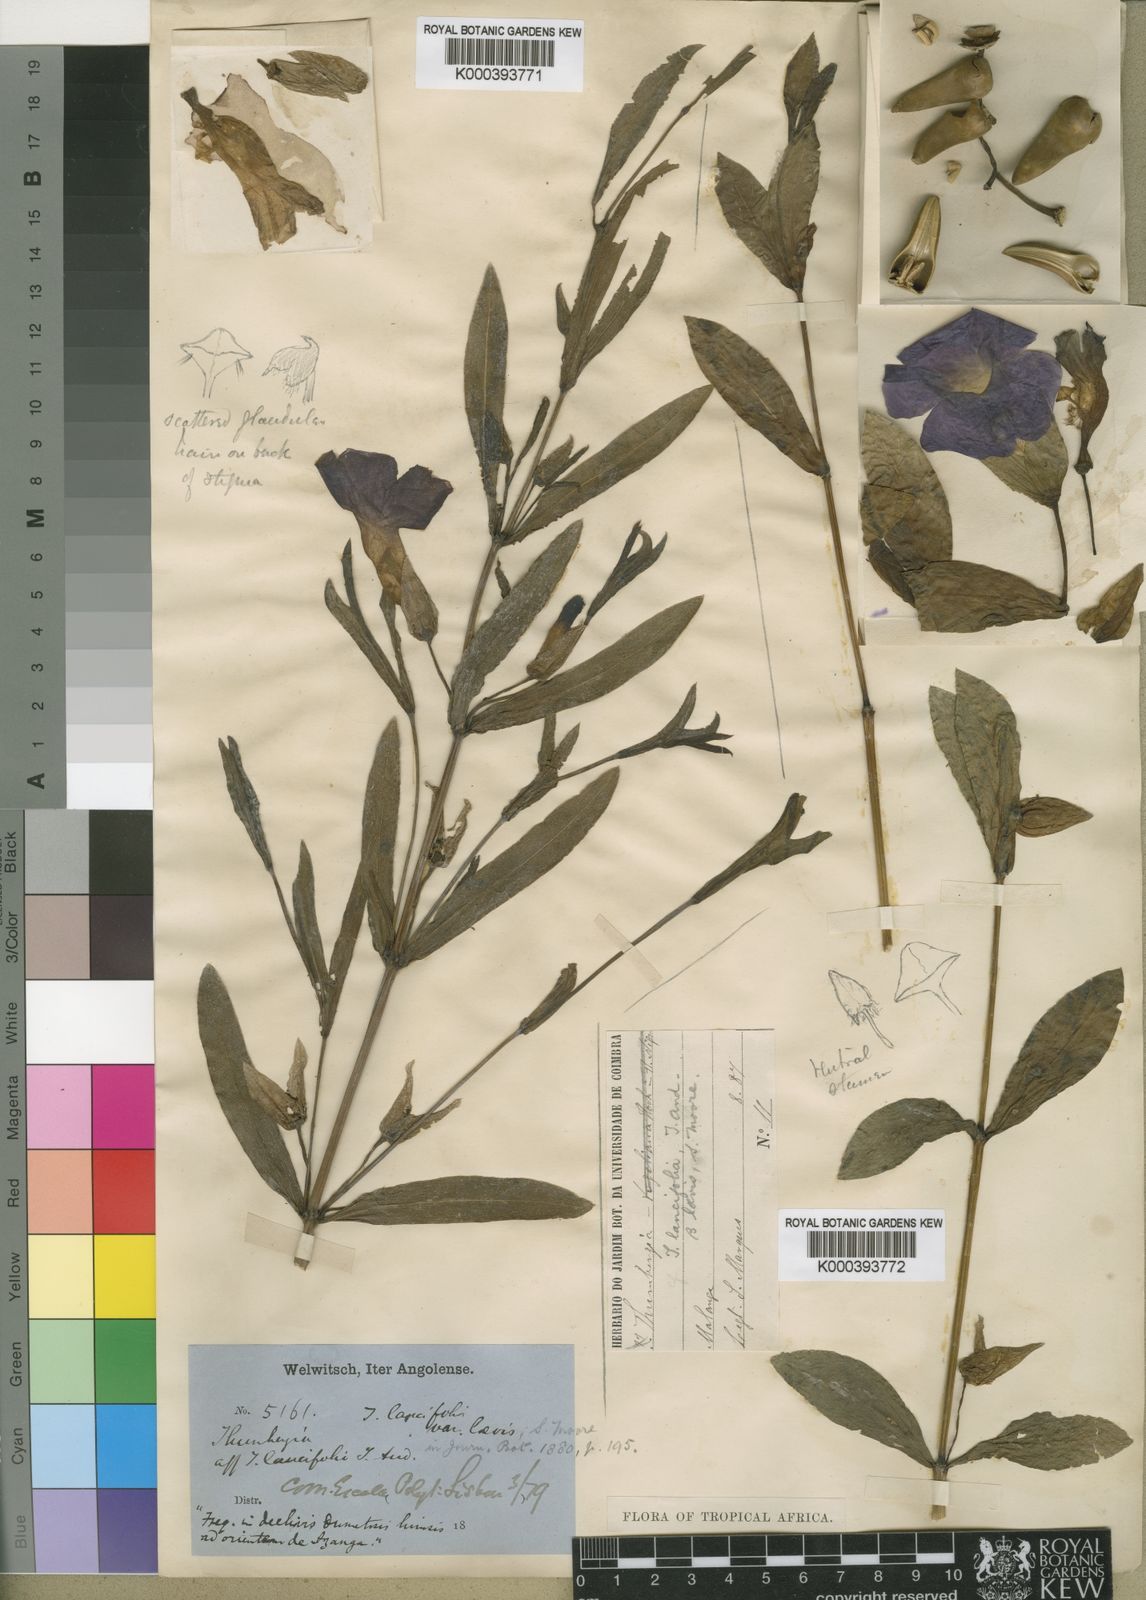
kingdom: Plantae
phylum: Tracheophyta
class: Magnoliopsida
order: Lamiales
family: Acanthaceae
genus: Thunbergia
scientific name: Thunbergia lancifolia
